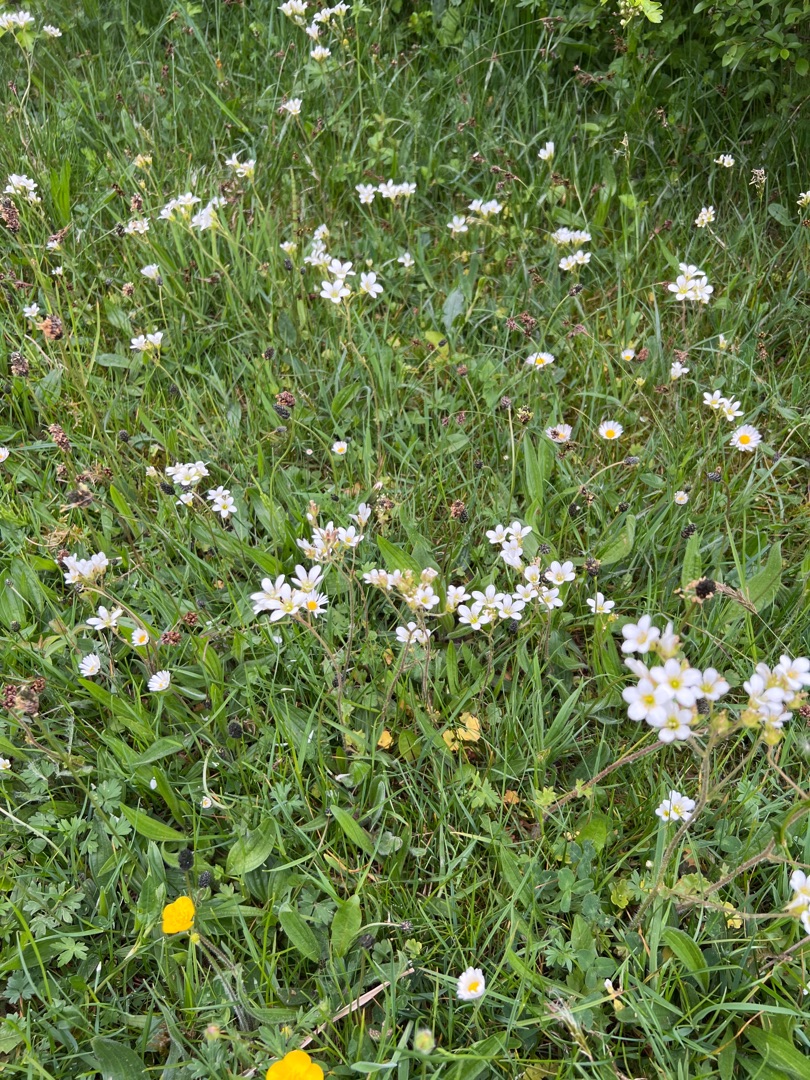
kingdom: Plantae
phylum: Tracheophyta
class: Magnoliopsida
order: Saxifragales
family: Saxifragaceae
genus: Saxifraga
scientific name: Saxifraga granulata
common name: Kornet stenbræk
